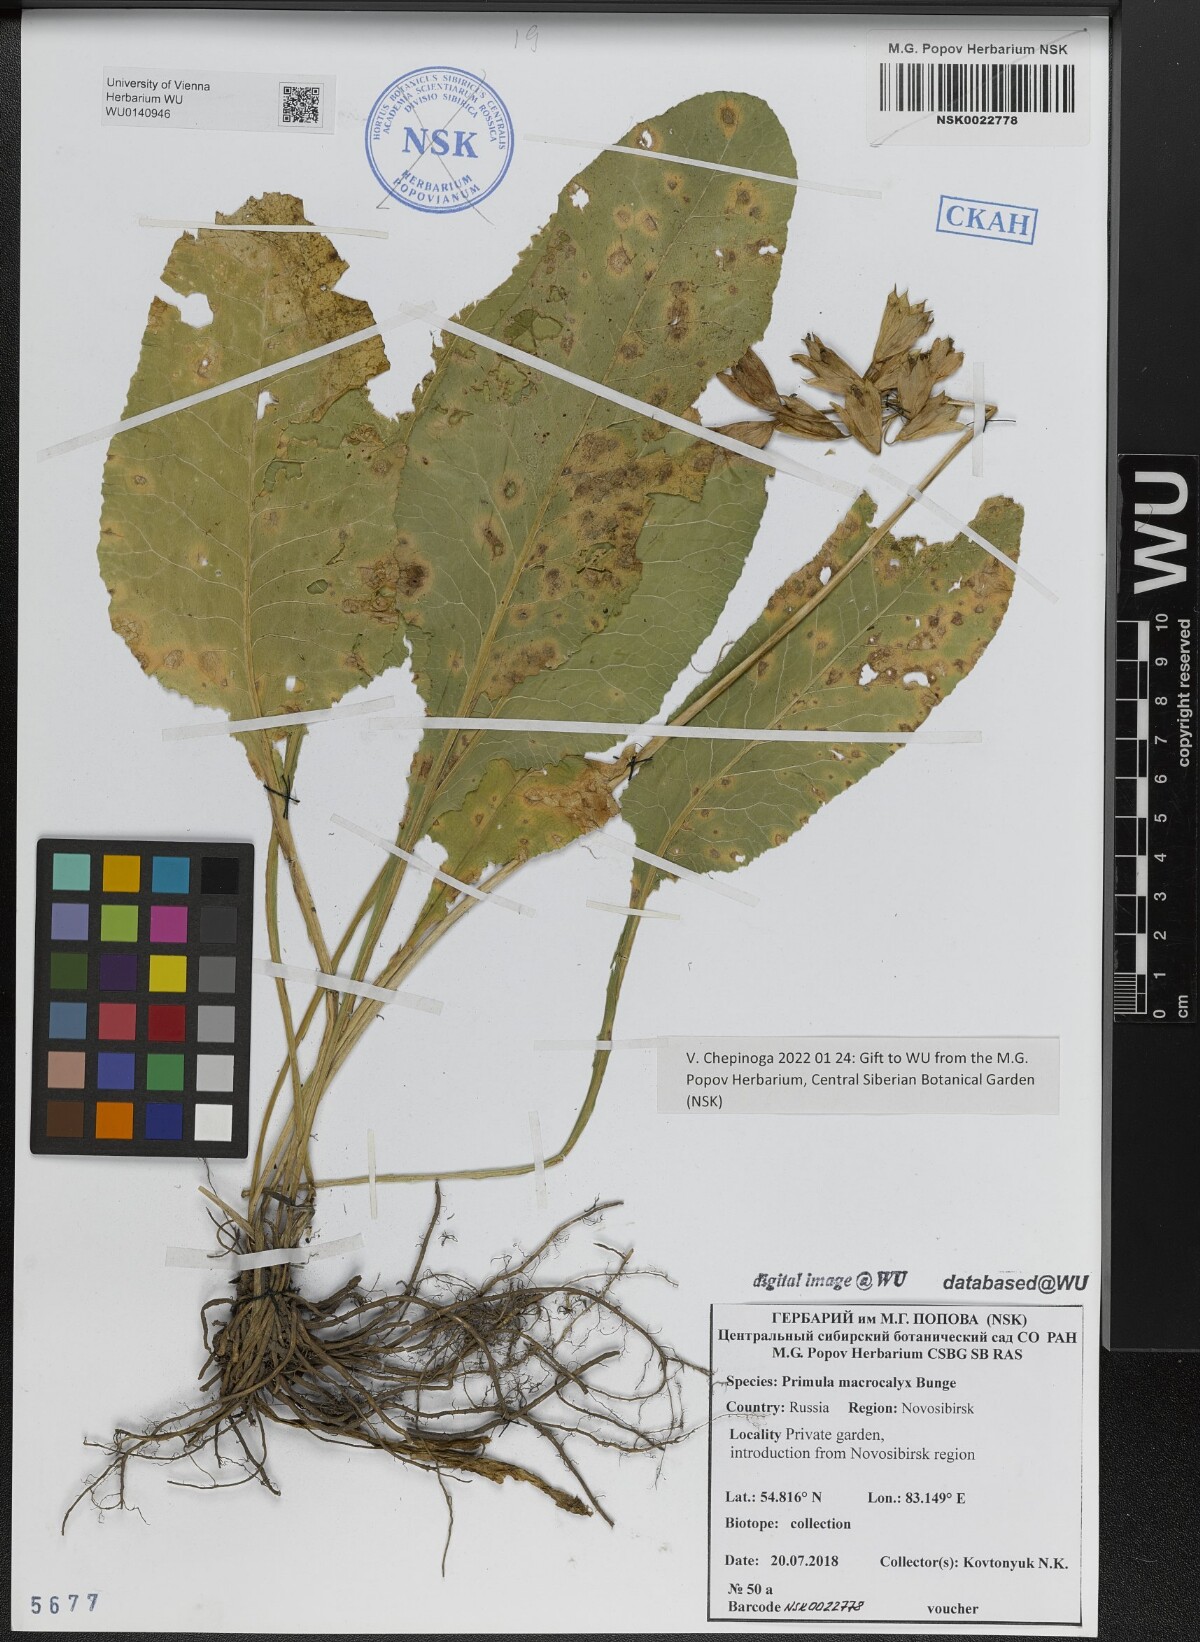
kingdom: Plantae
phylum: Tracheophyta
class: Magnoliopsida
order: Ericales
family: Primulaceae
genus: Primula
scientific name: Primula veris
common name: Cowslip
